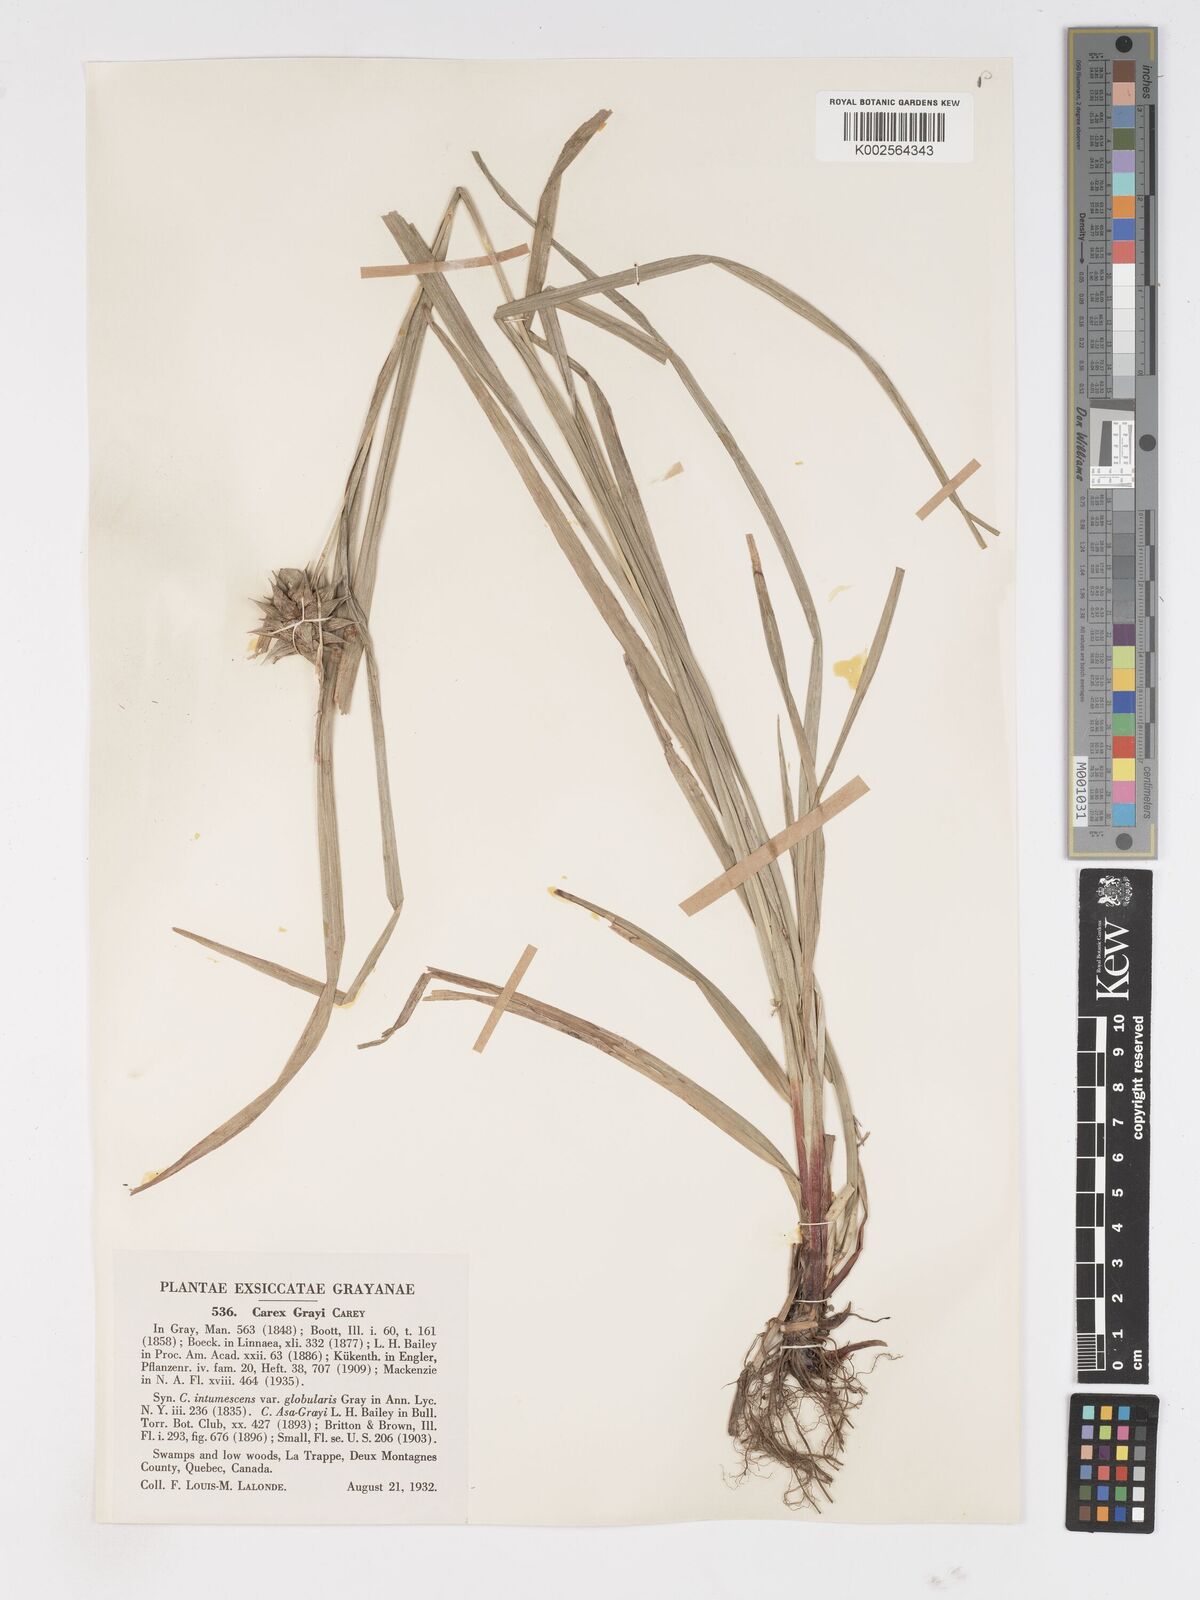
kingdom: Plantae
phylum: Tracheophyta
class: Liliopsida
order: Poales
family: Cyperaceae
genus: Carex
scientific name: Carex grayi
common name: Asa gray's sedge
